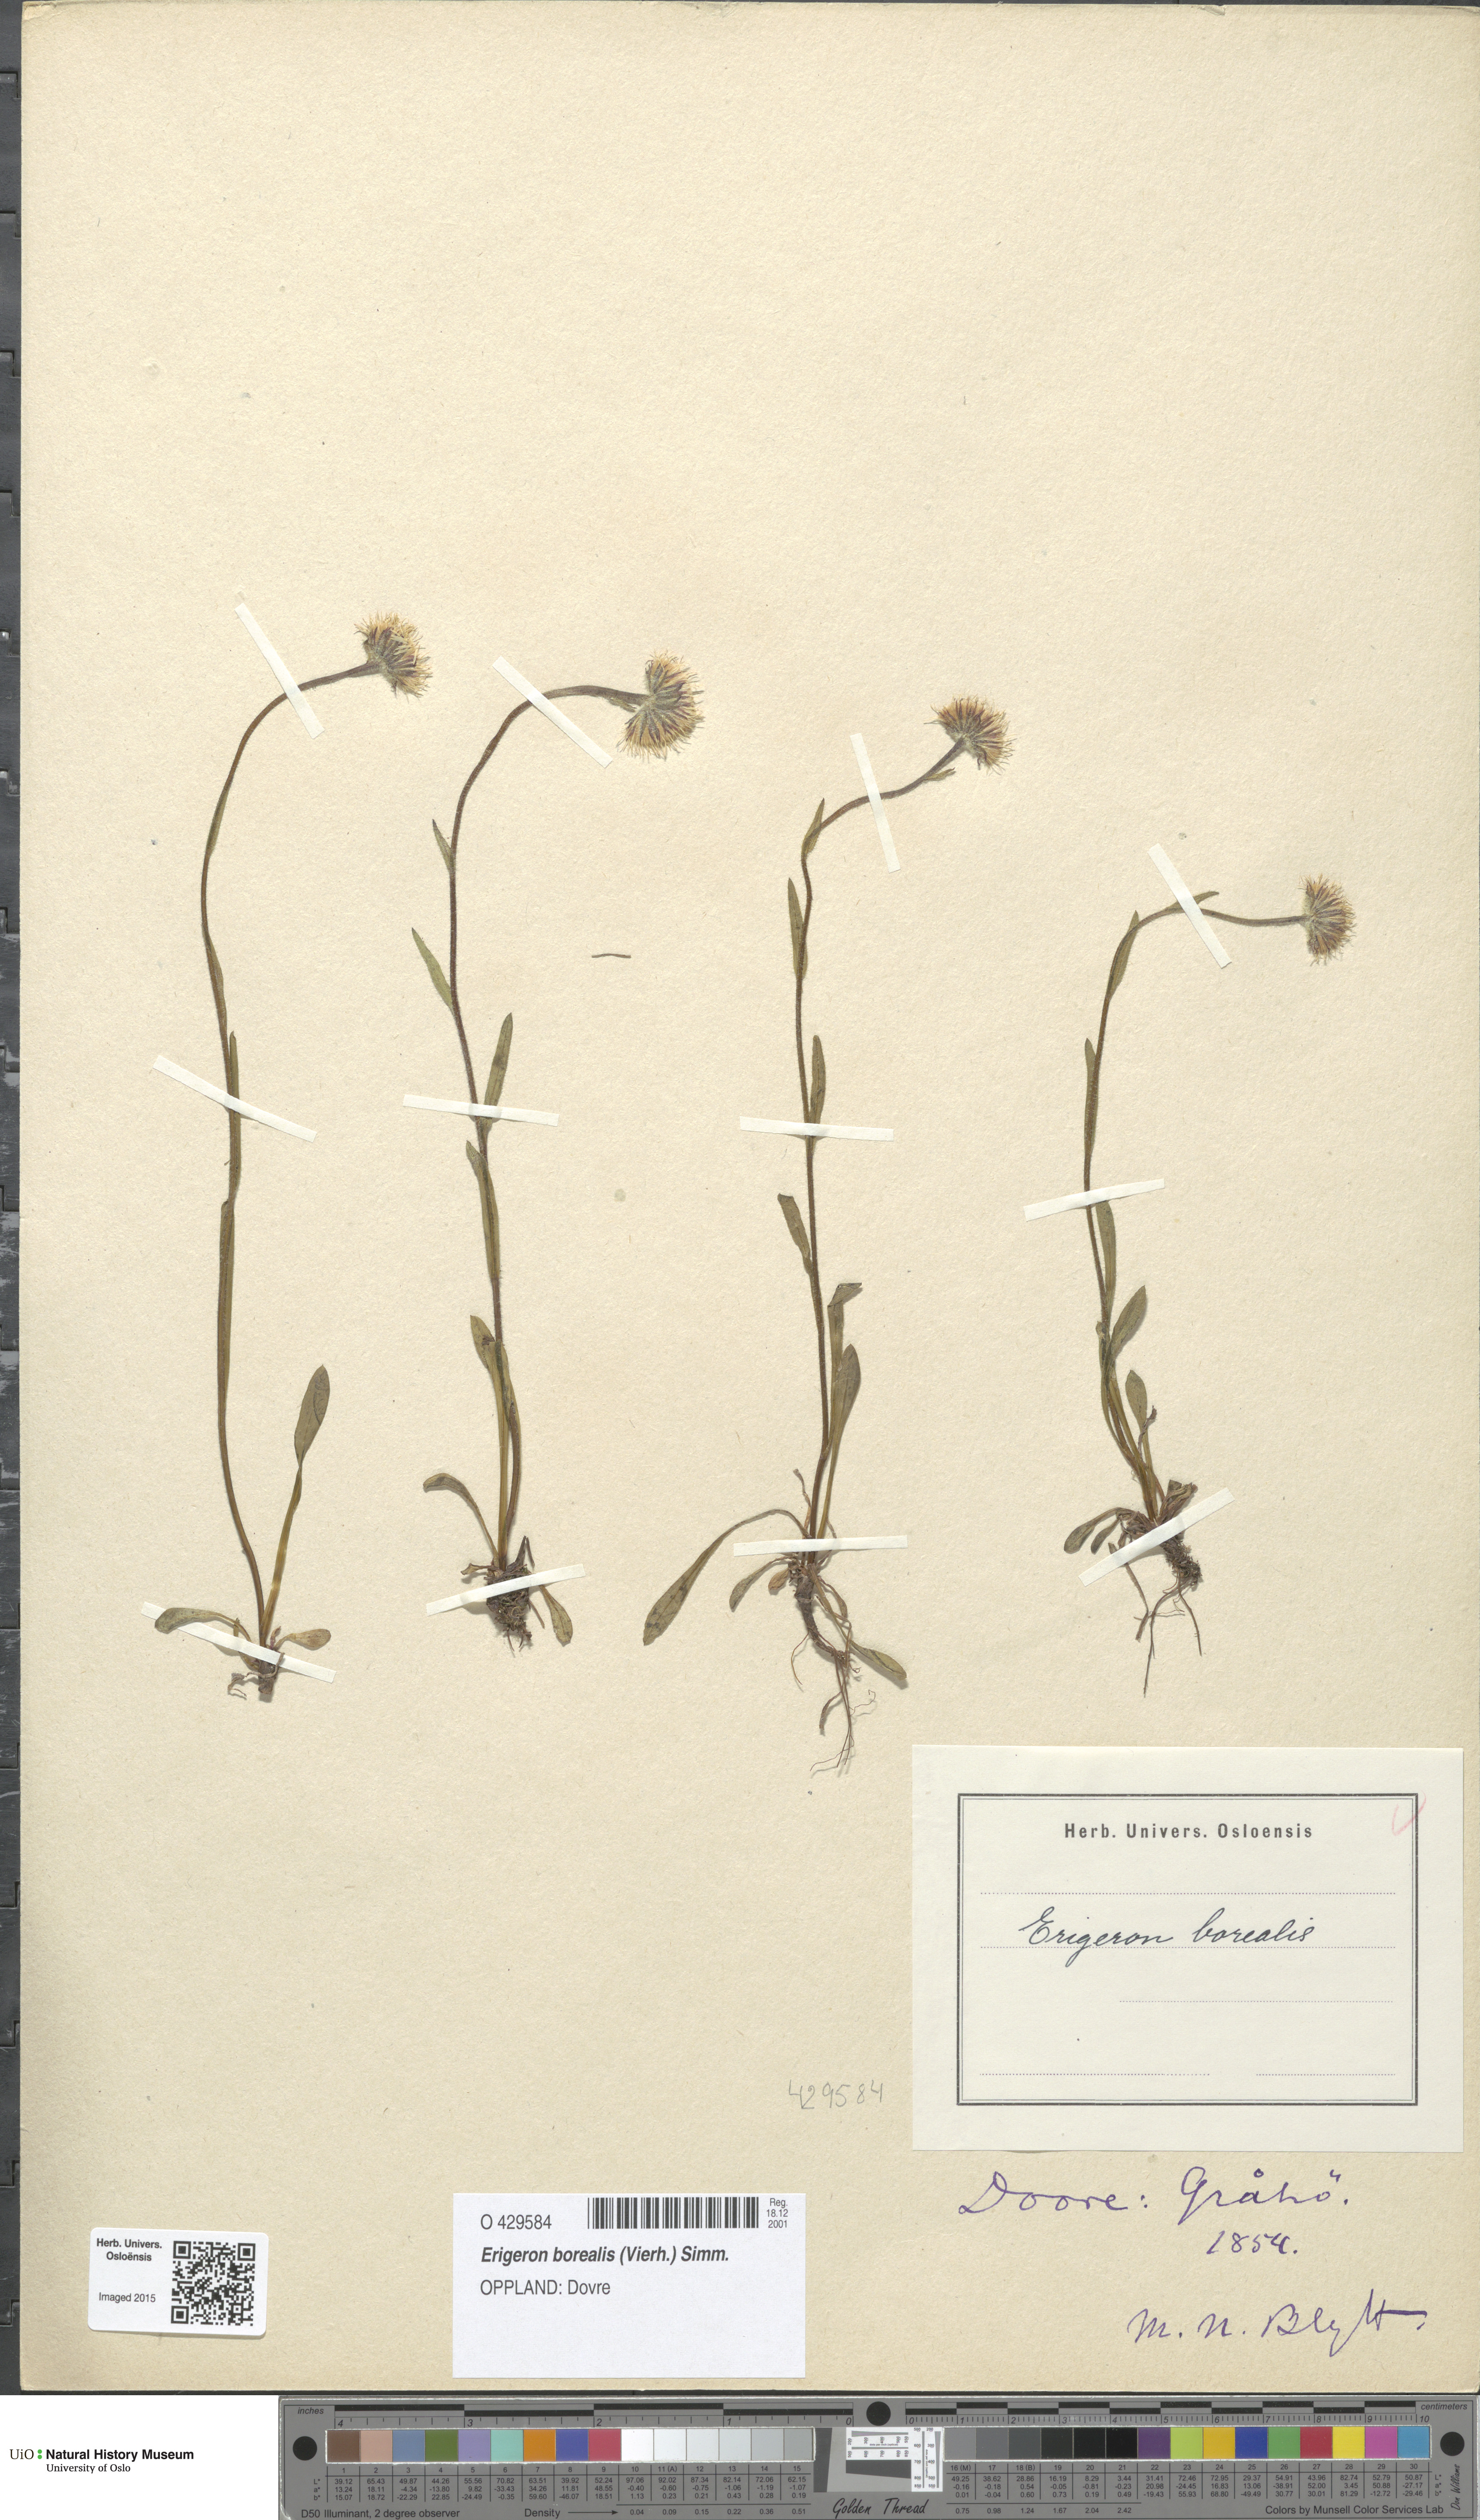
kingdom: Plantae
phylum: Tracheophyta
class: Magnoliopsida
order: Asterales
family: Asteraceae
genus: Erigeron
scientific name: Erigeron borealis
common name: Alpine fleabane
